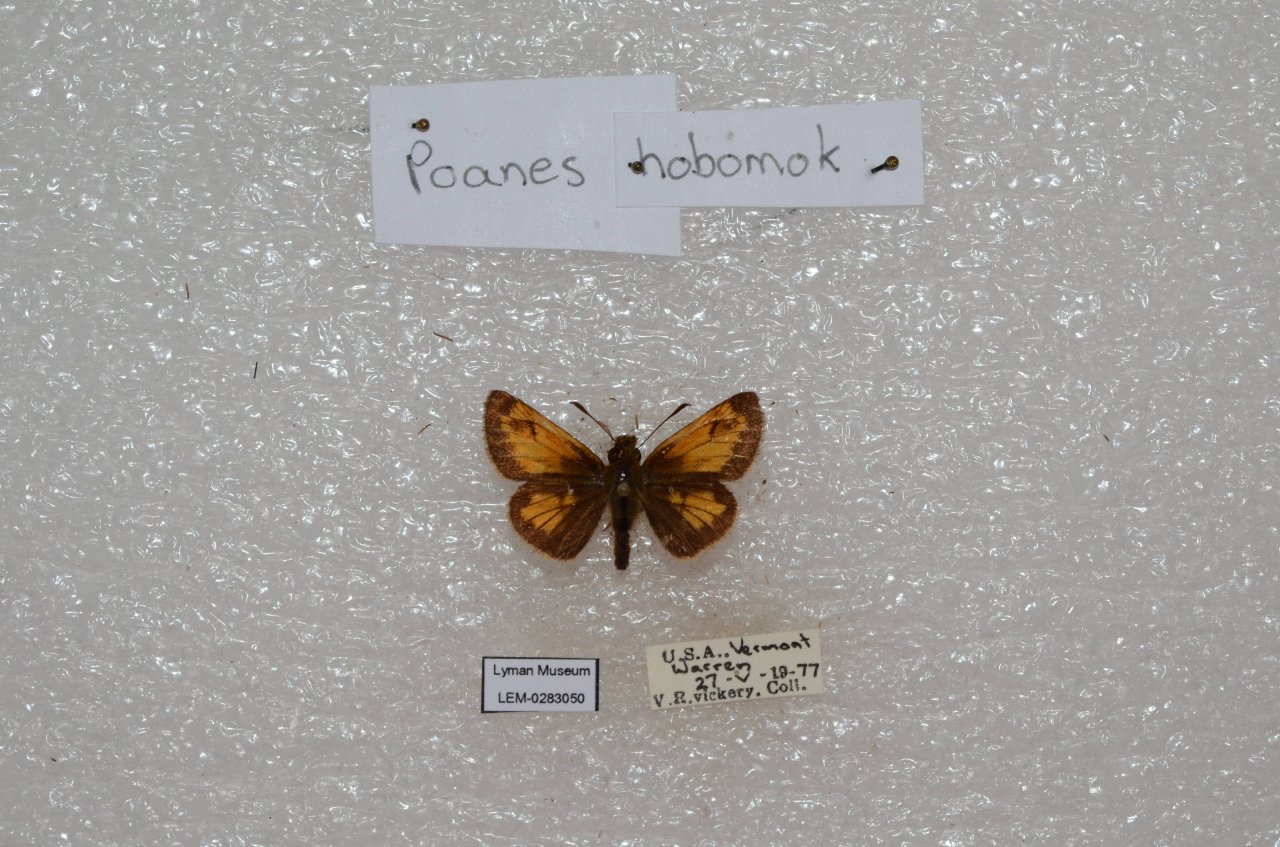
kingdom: Animalia
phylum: Arthropoda
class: Insecta
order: Lepidoptera
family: Hesperiidae
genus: Lon
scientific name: Lon hobomok
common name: Hobomok Skipper
